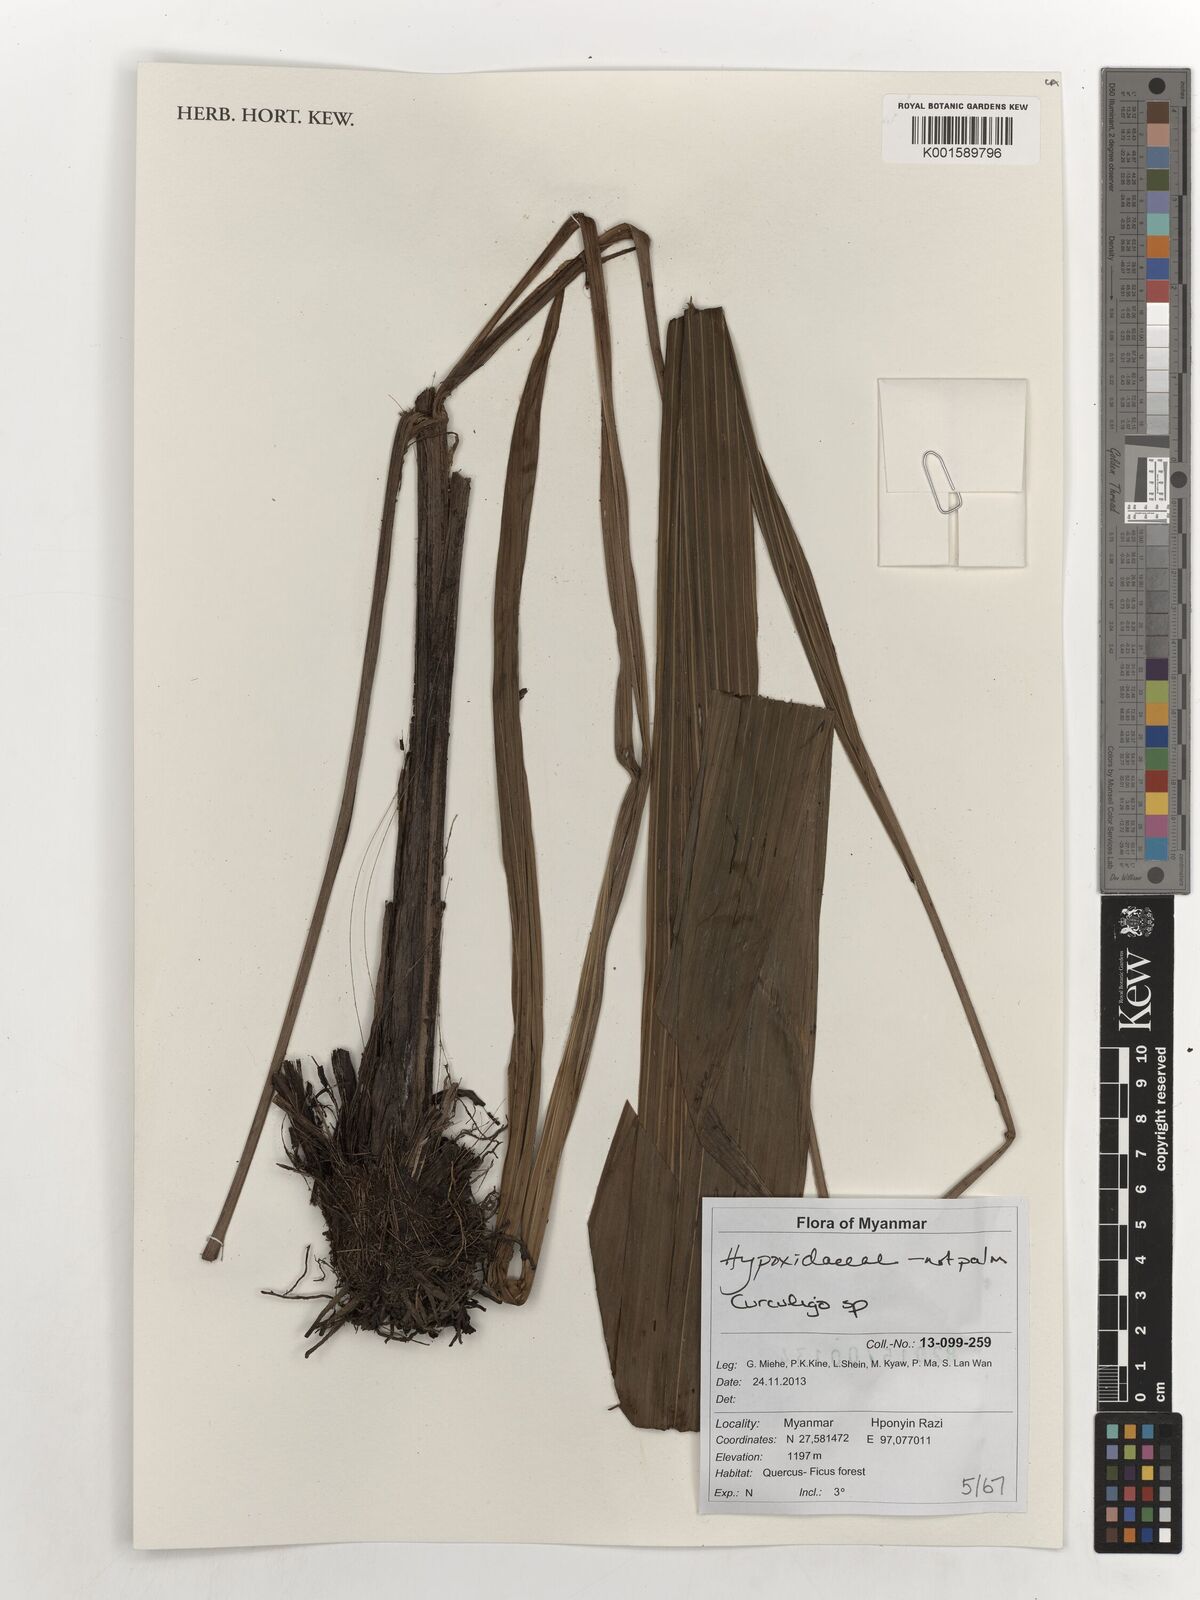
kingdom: Plantae
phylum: Tracheophyta
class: Liliopsida
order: Asparagales
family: Hypoxidaceae
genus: Curculigo
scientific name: Curculigo
